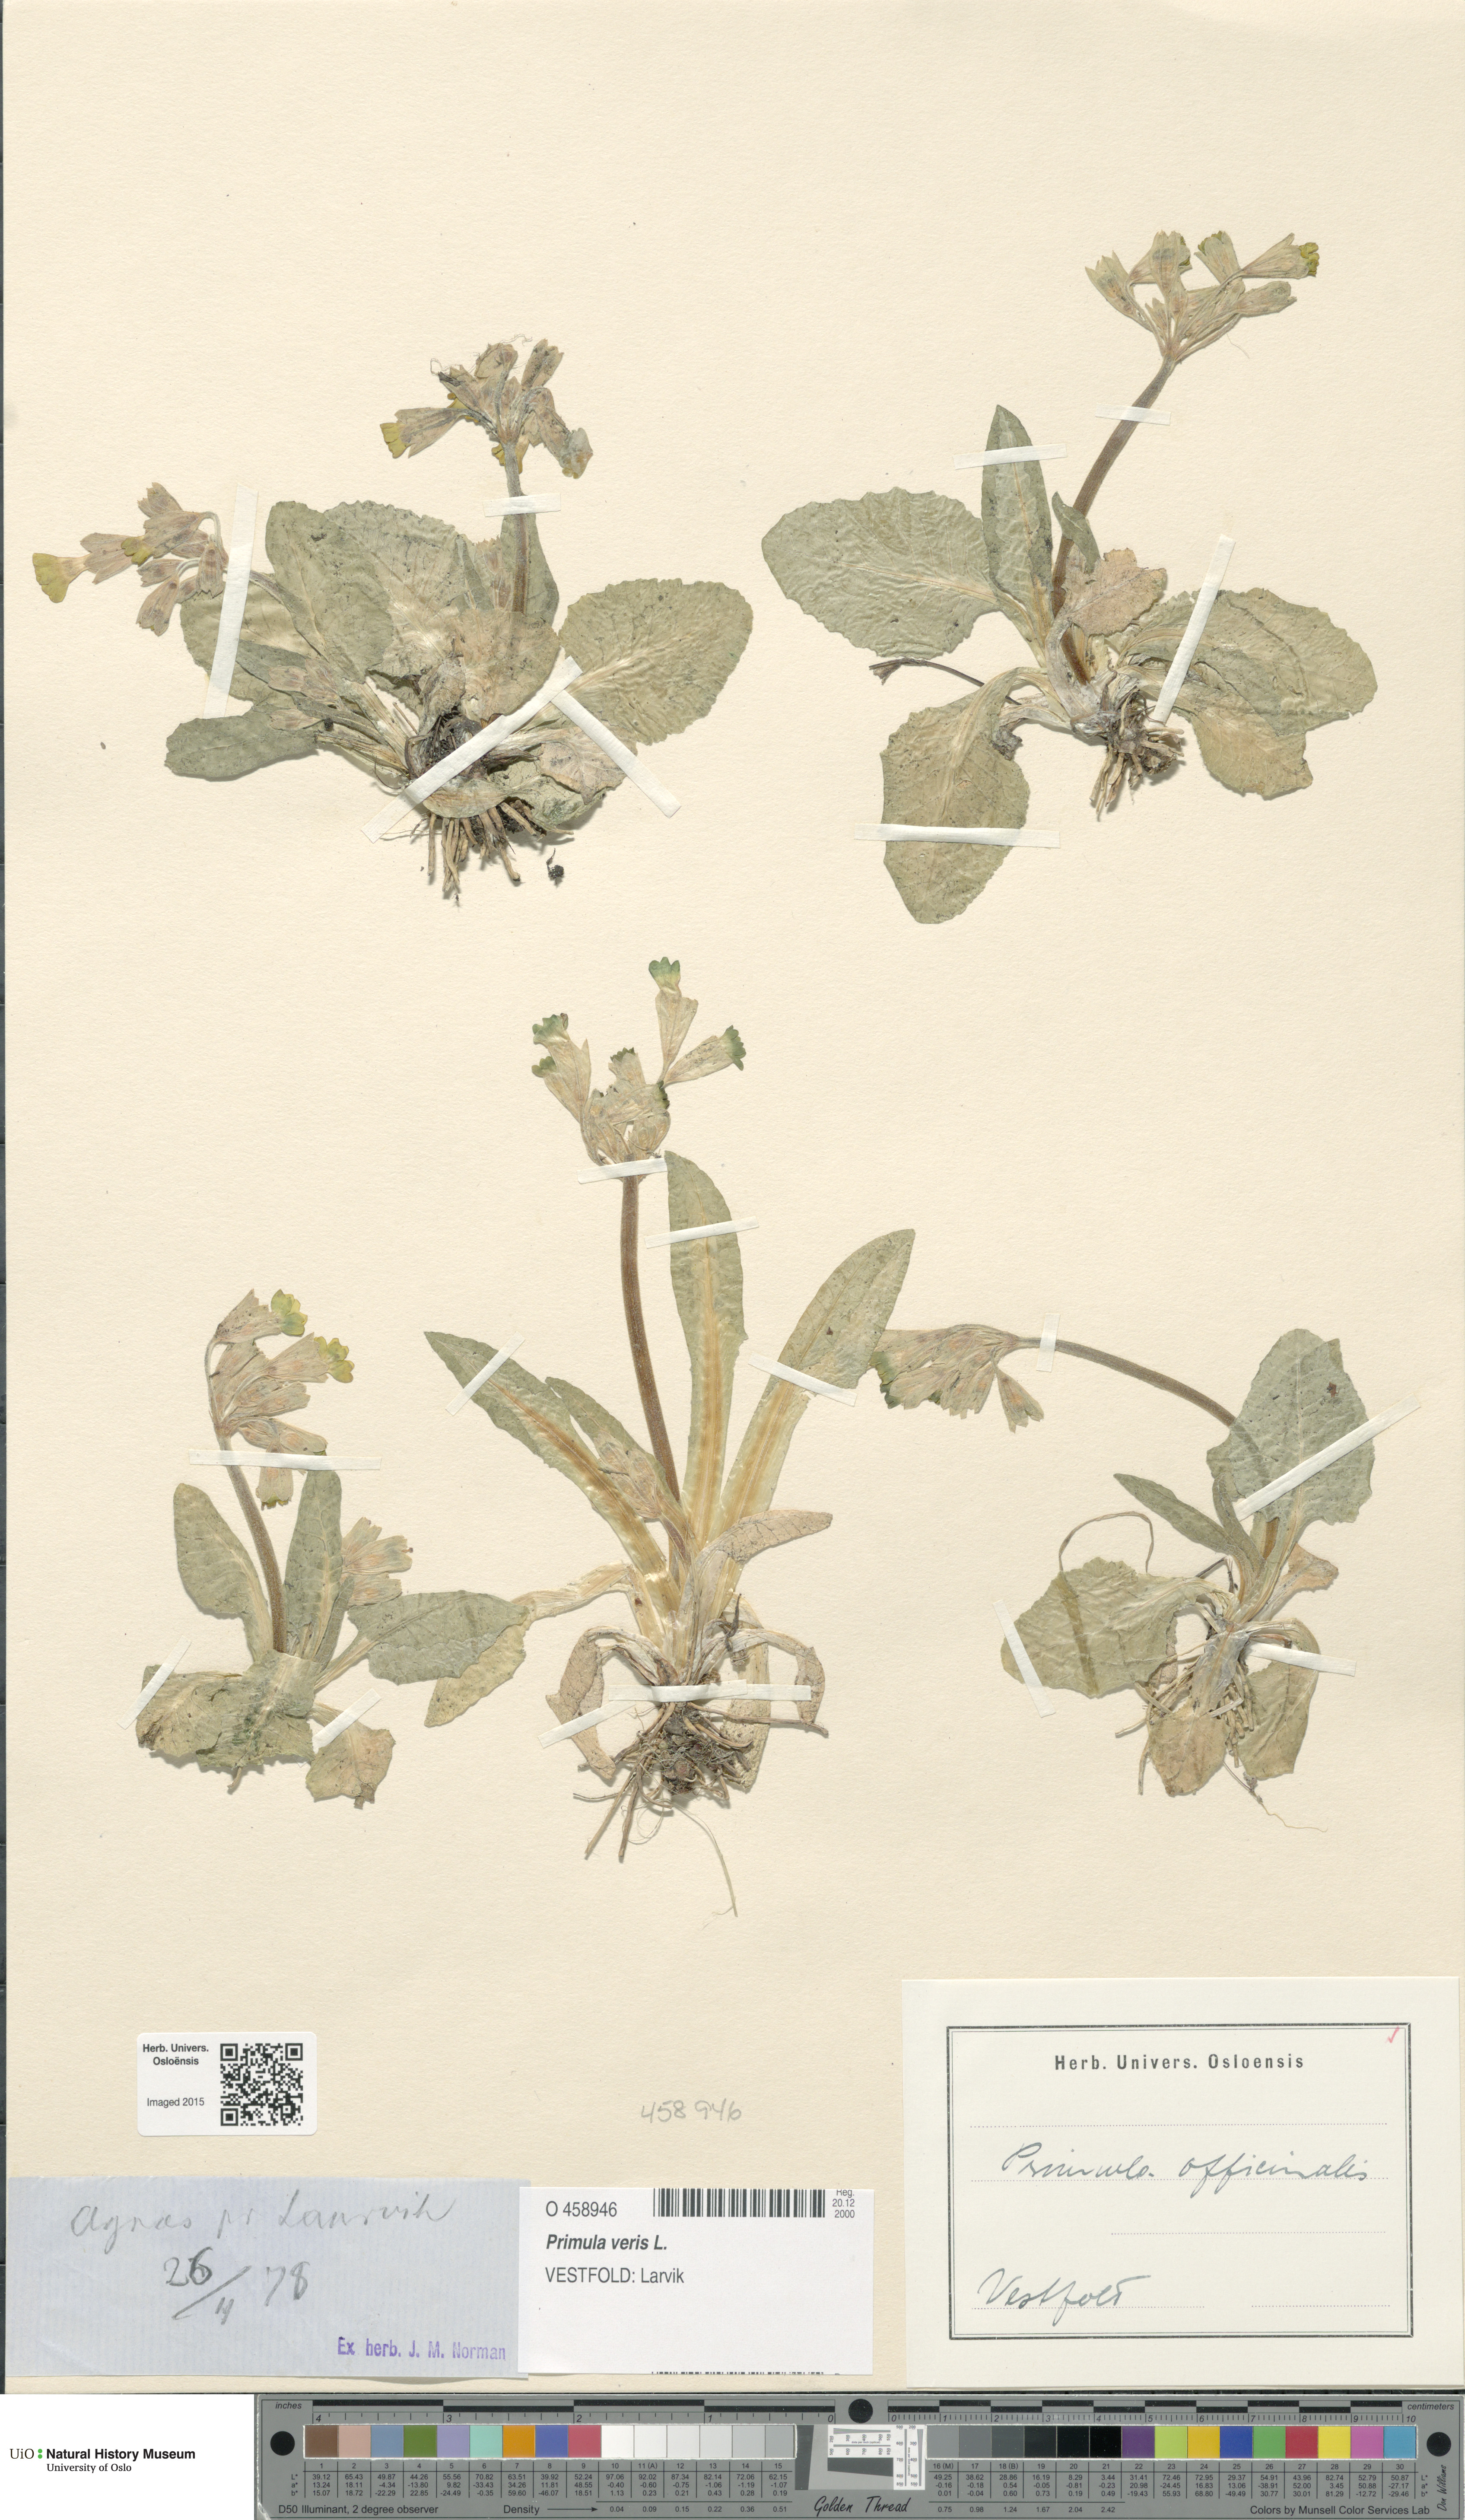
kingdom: Plantae
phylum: Tracheophyta
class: Magnoliopsida
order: Ericales
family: Primulaceae
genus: Primula
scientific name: Primula veris
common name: Cowslip
